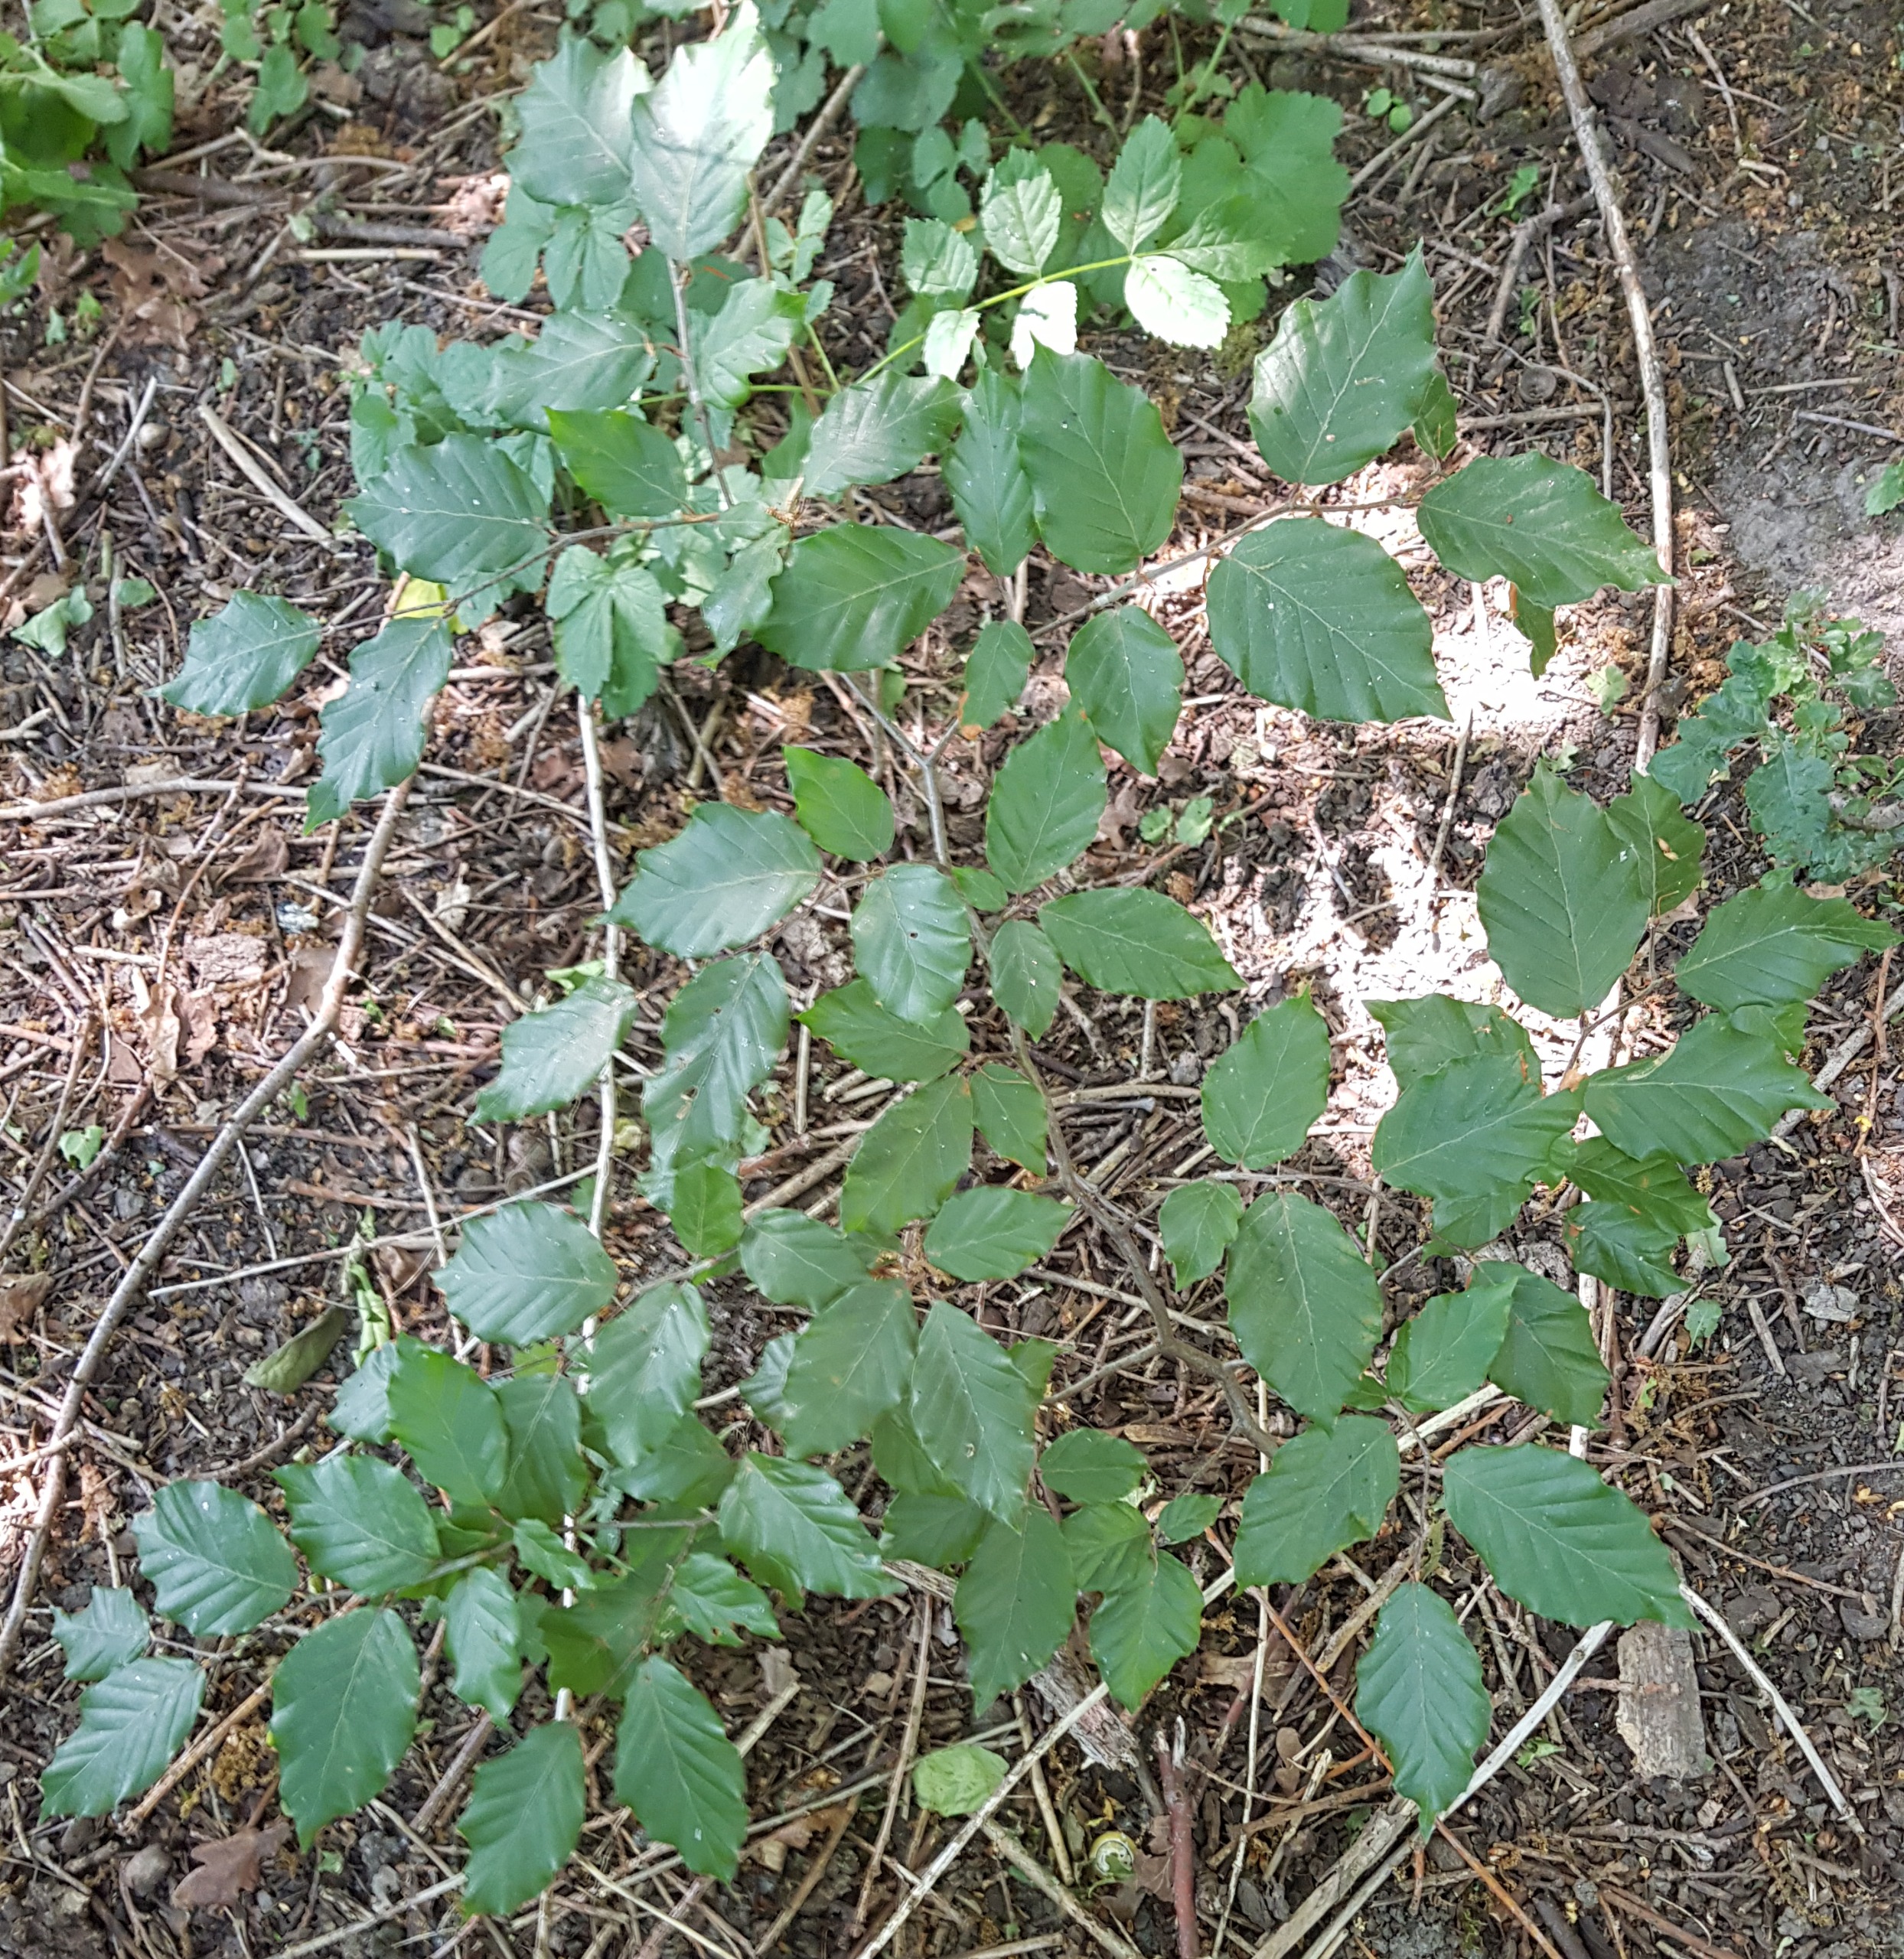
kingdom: Plantae
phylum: Tracheophyta
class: Magnoliopsida
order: Fagales
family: Fagaceae
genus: Fagus
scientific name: Fagus sylvatica
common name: Bøg
